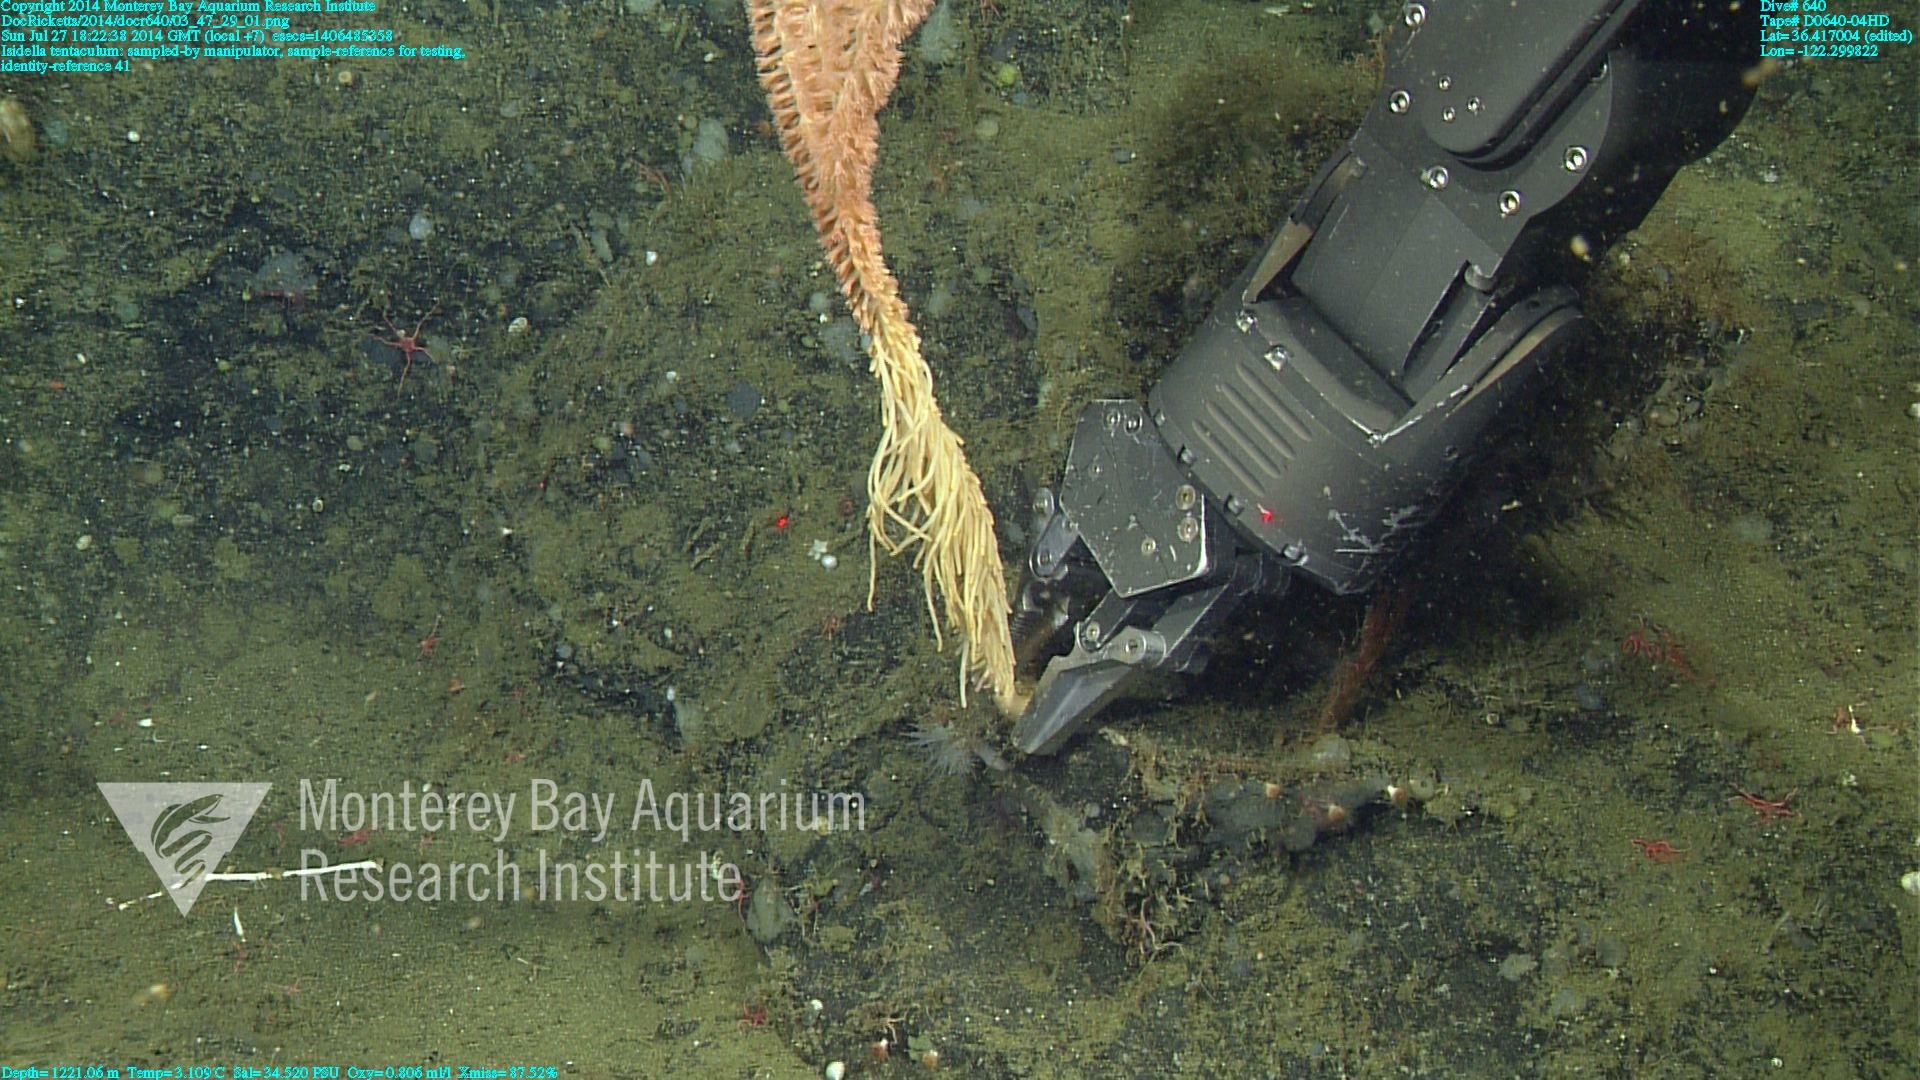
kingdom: Animalia
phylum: Cnidaria
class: Anthozoa
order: Scleralcyonacea
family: Keratoisididae
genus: Isidella
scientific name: Isidella tentaculum
